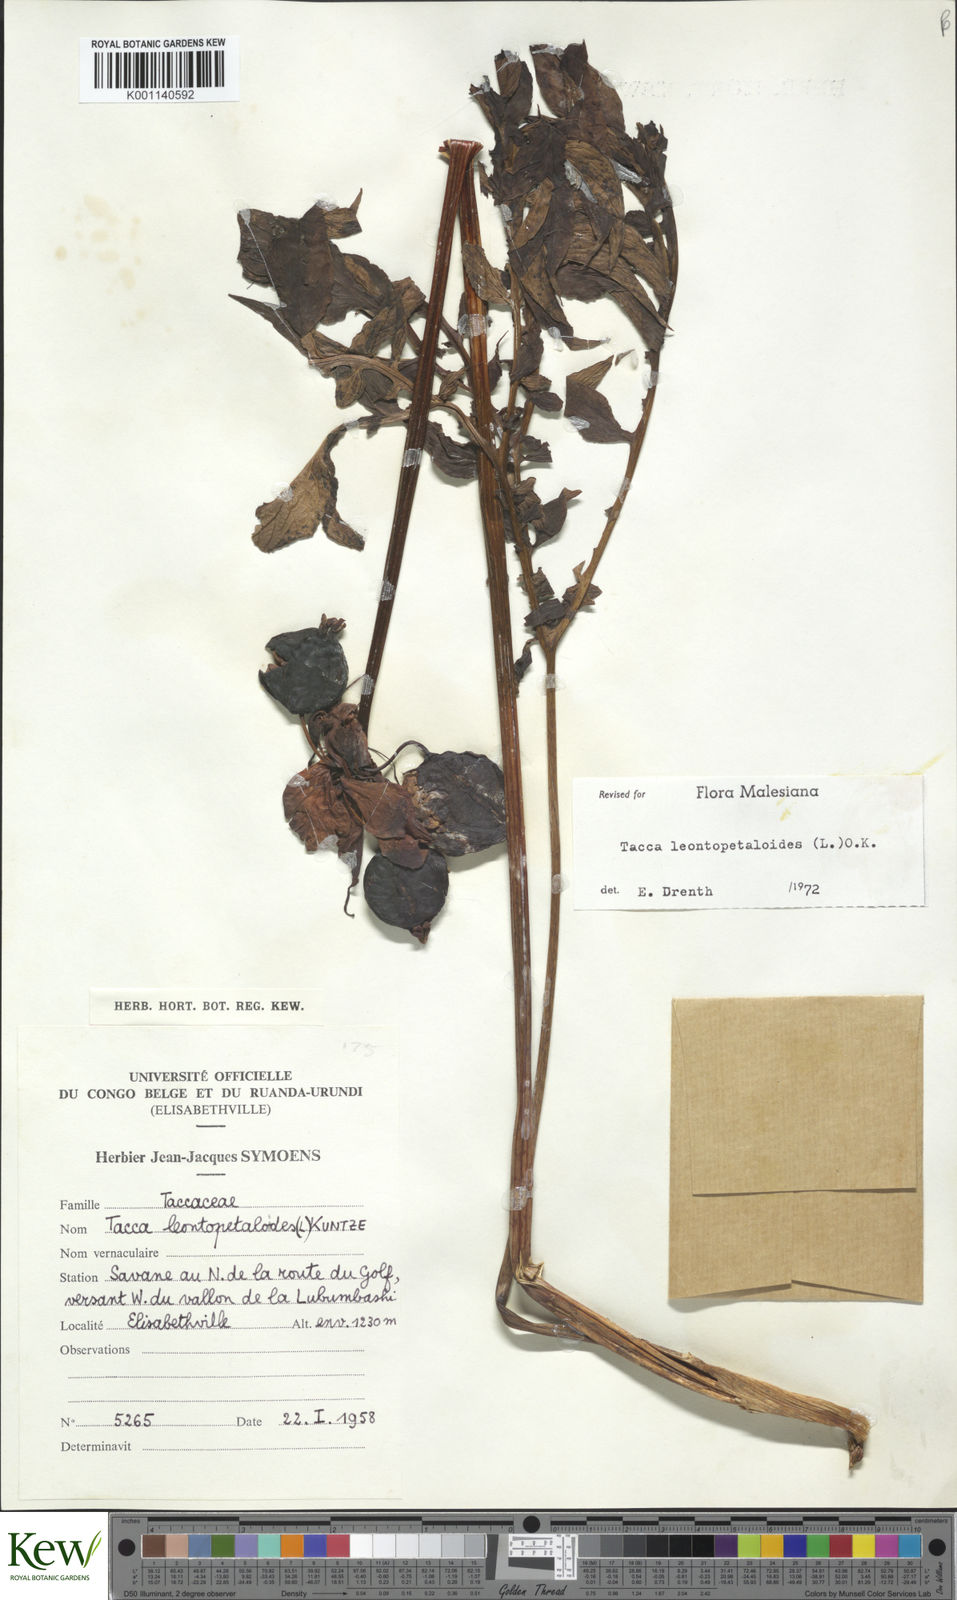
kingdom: Plantae
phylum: Tracheophyta
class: Liliopsida
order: Dioscoreales
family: Dioscoreaceae
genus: Tacca
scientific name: Tacca leontopetaloides
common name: Arrowroot
